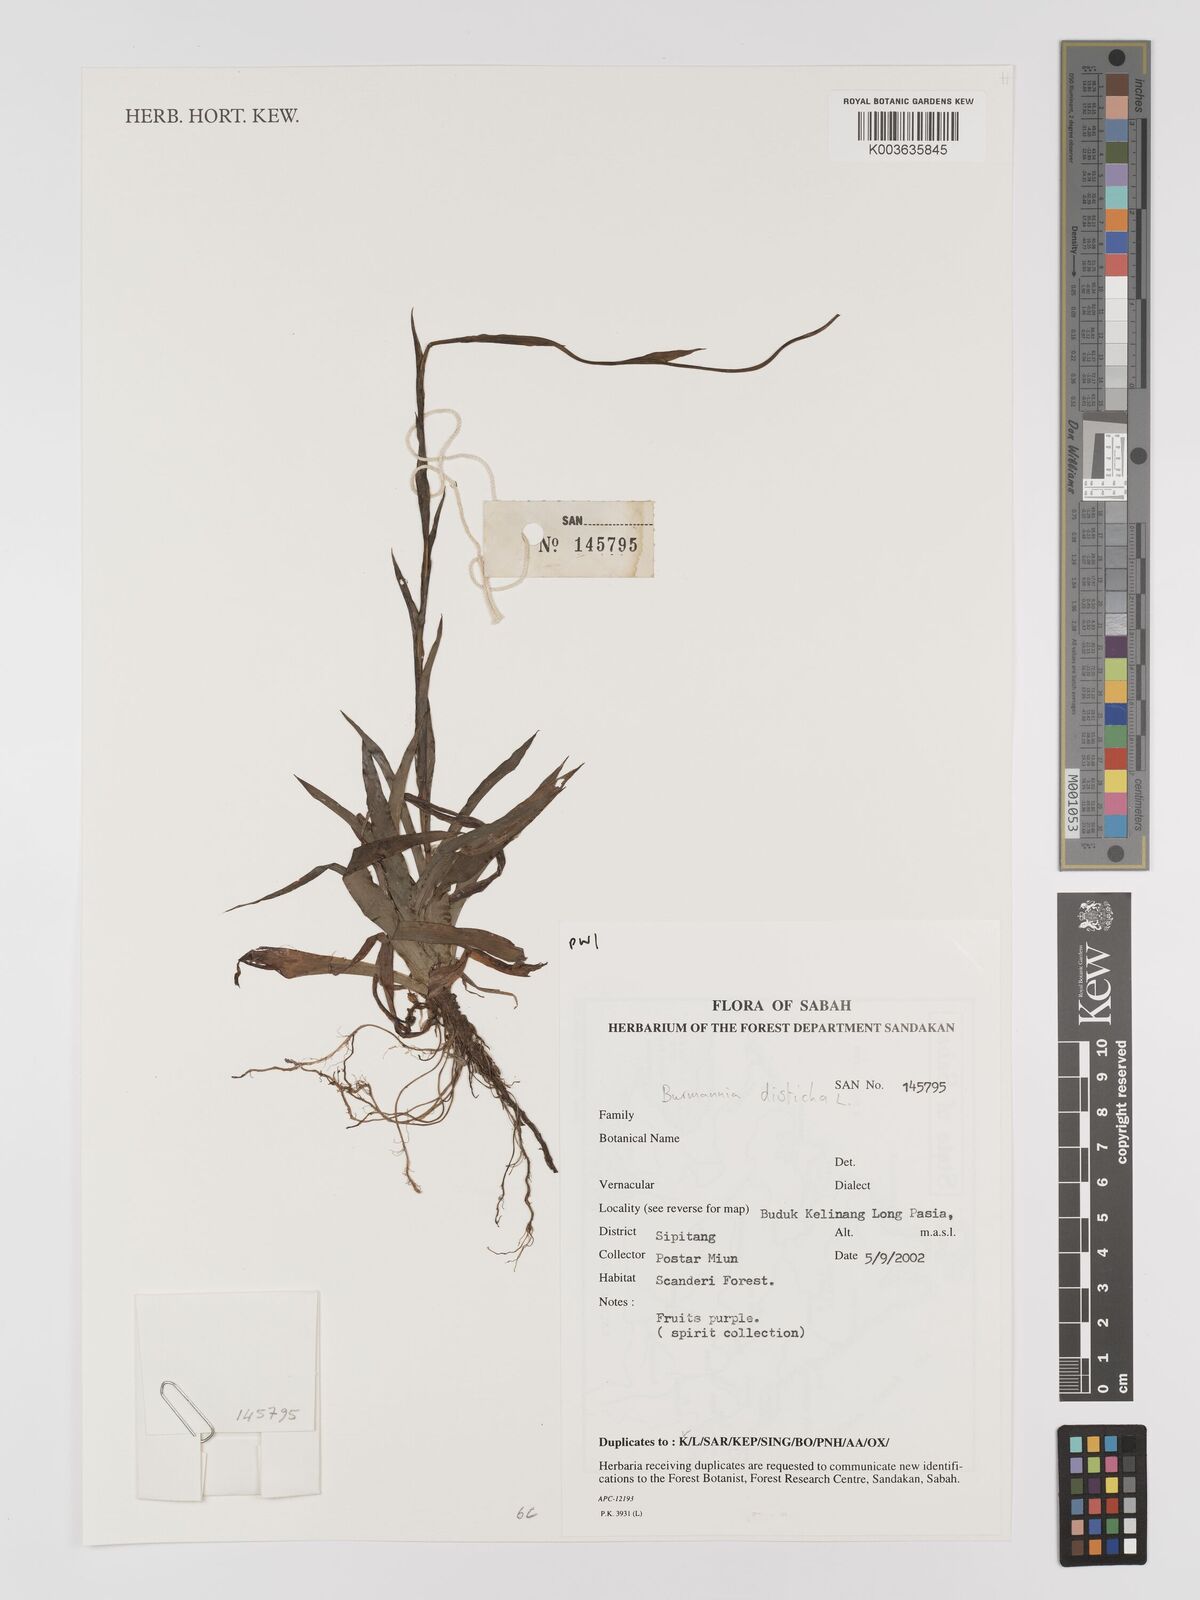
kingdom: Plantae
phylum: Tracheophyta
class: Liliopsida
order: Dioscoreales
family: Burmanniaceae
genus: Burmannia
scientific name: Burmannia disticha
